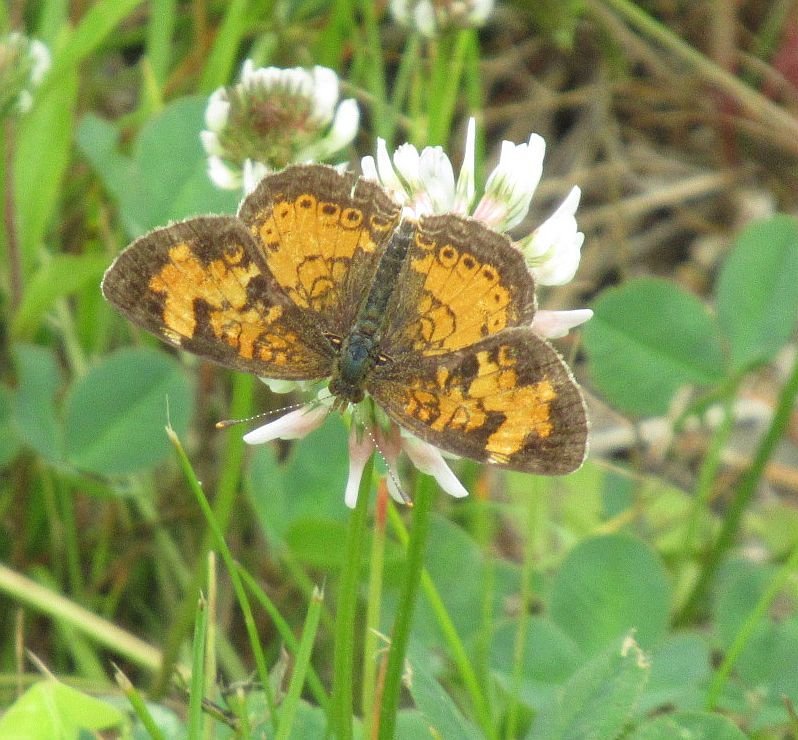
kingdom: Animalia
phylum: Arthropoda
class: Insecta
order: Lepidoptera
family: Nymphalidae
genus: Phyciodes
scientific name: Phyciodes tharos
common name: Northern Crescent
